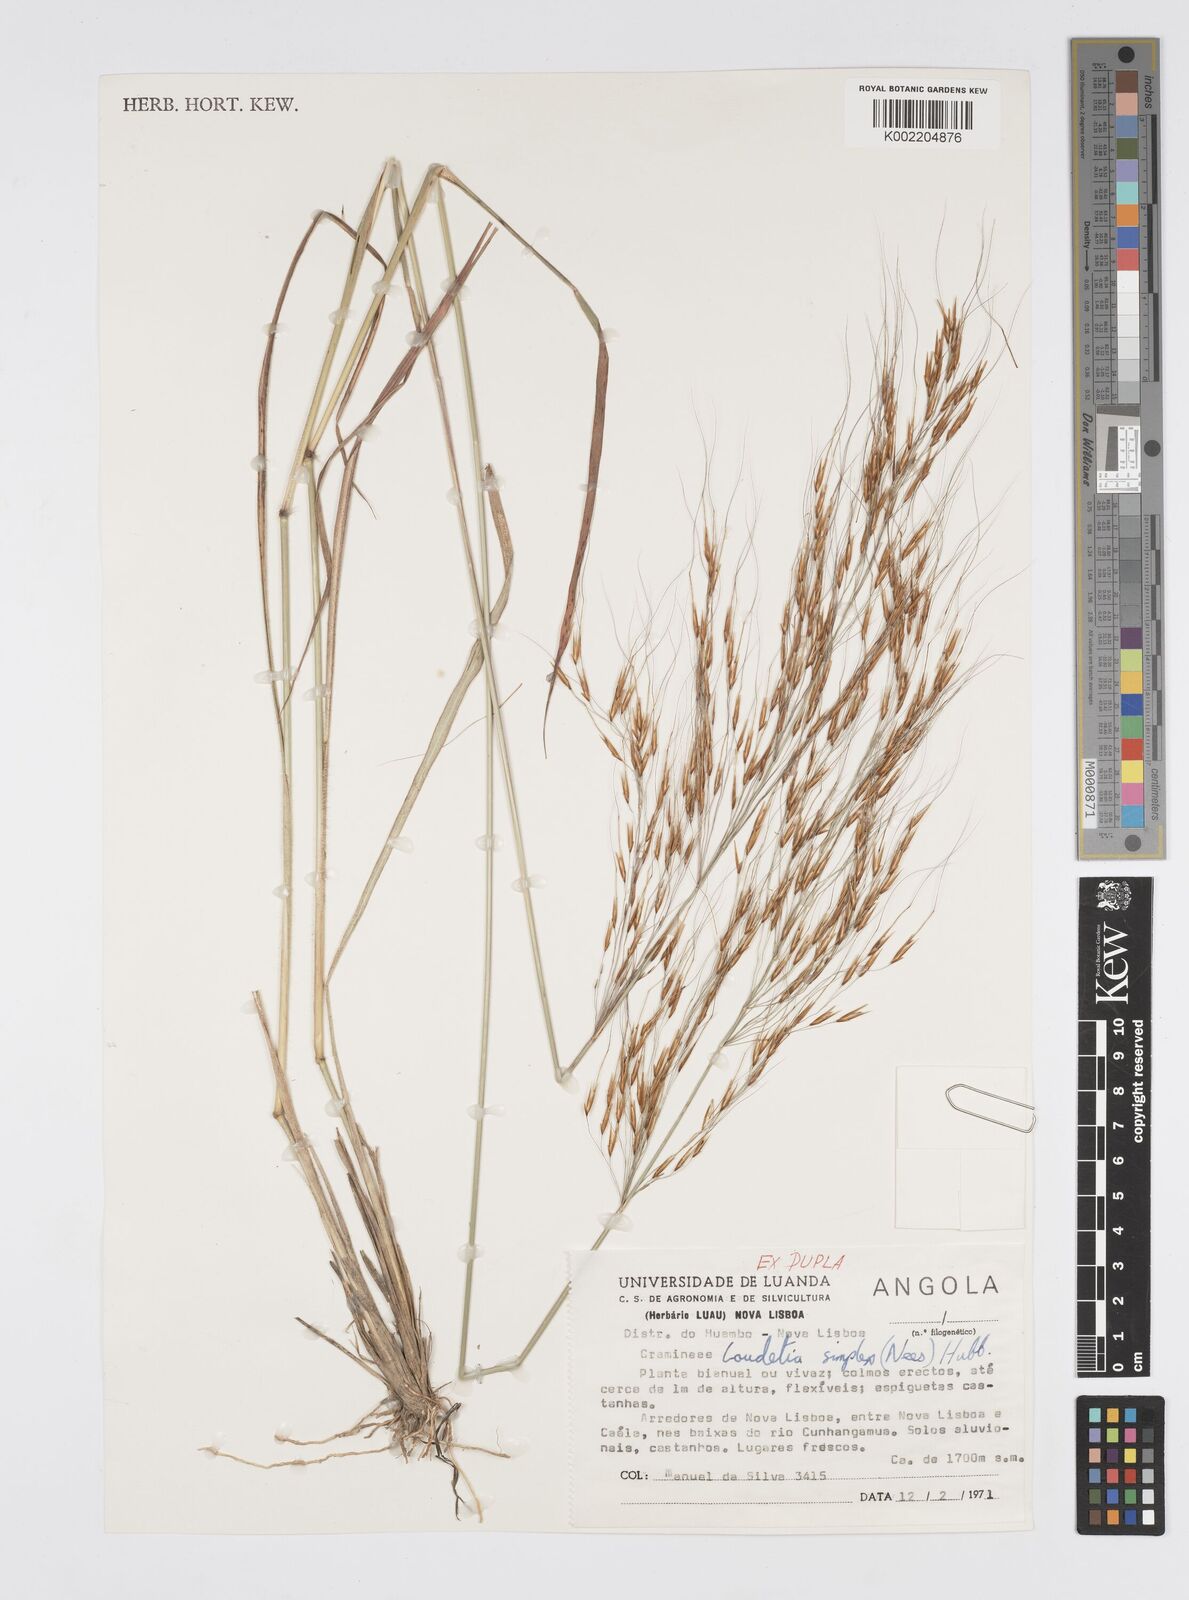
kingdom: Plantae
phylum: Tracheophyta
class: Liliopsida
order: Poales
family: Poaceae
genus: Loudetia
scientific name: Loudetia simplex
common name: Common russet grass
